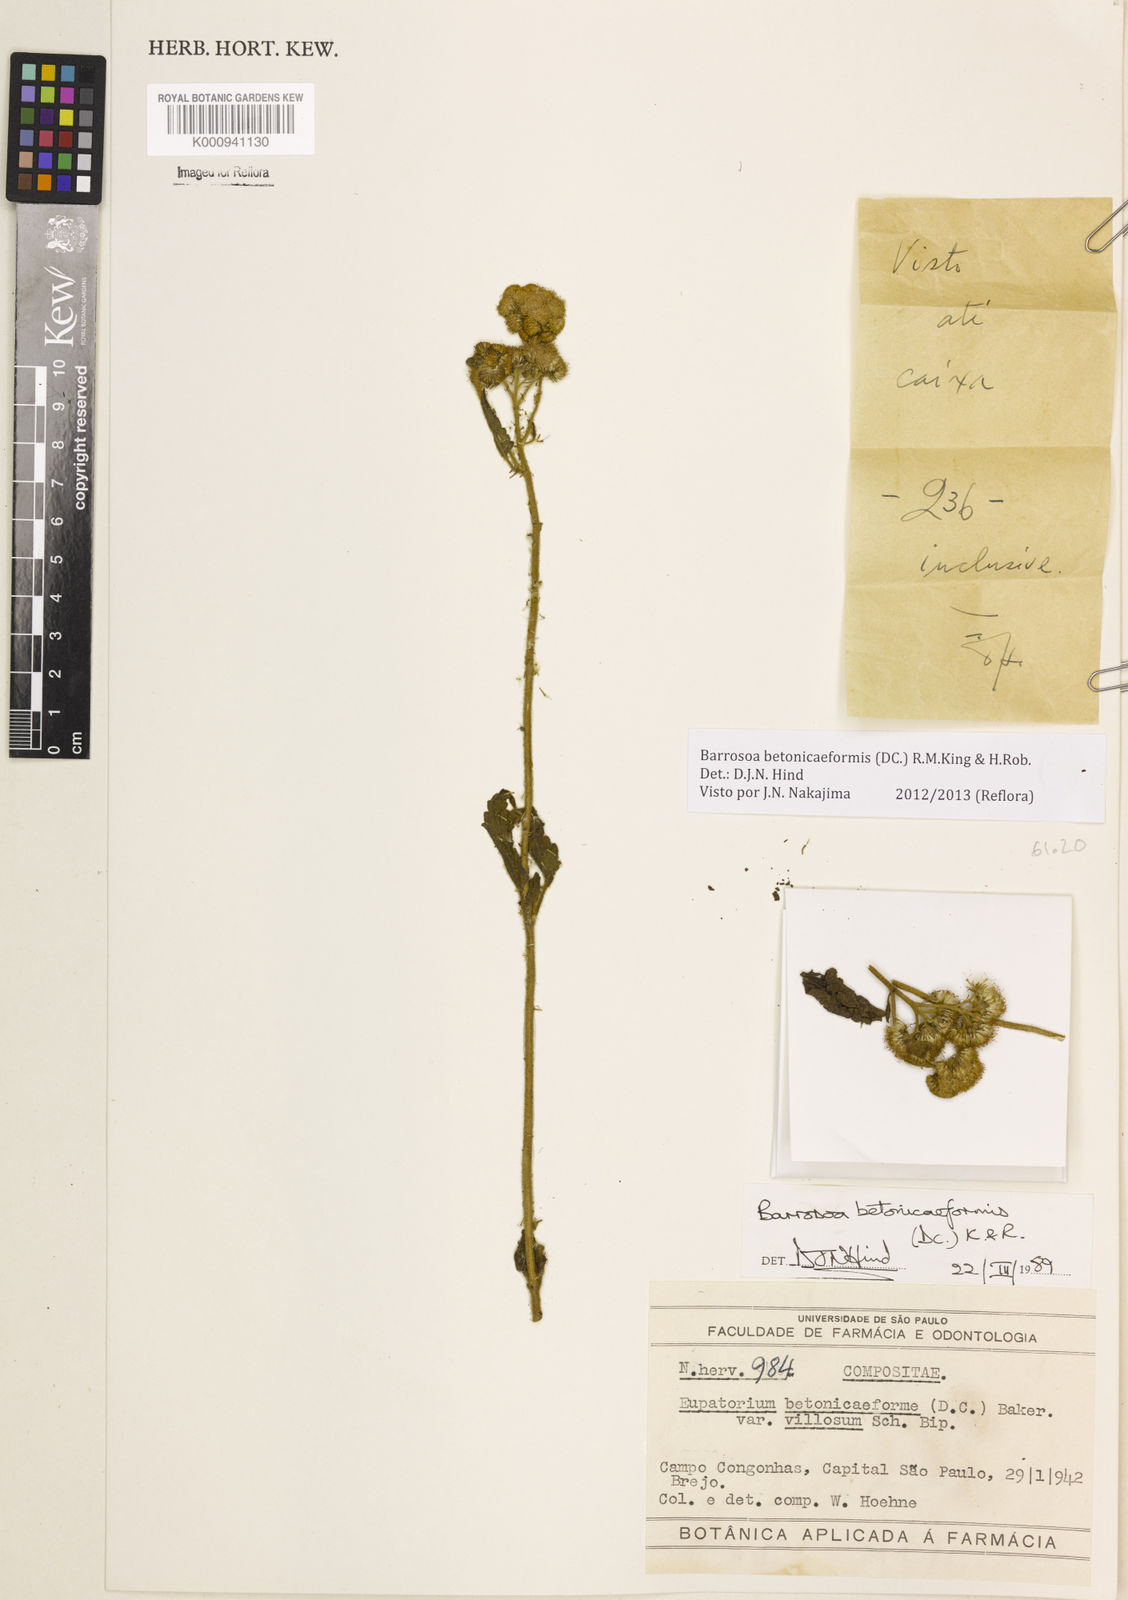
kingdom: Plantae
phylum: Tracheophyta
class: Magnoliopsida
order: Asterales
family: Asteraceae
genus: Barrosoa
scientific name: Barrosoa betoniciformis
